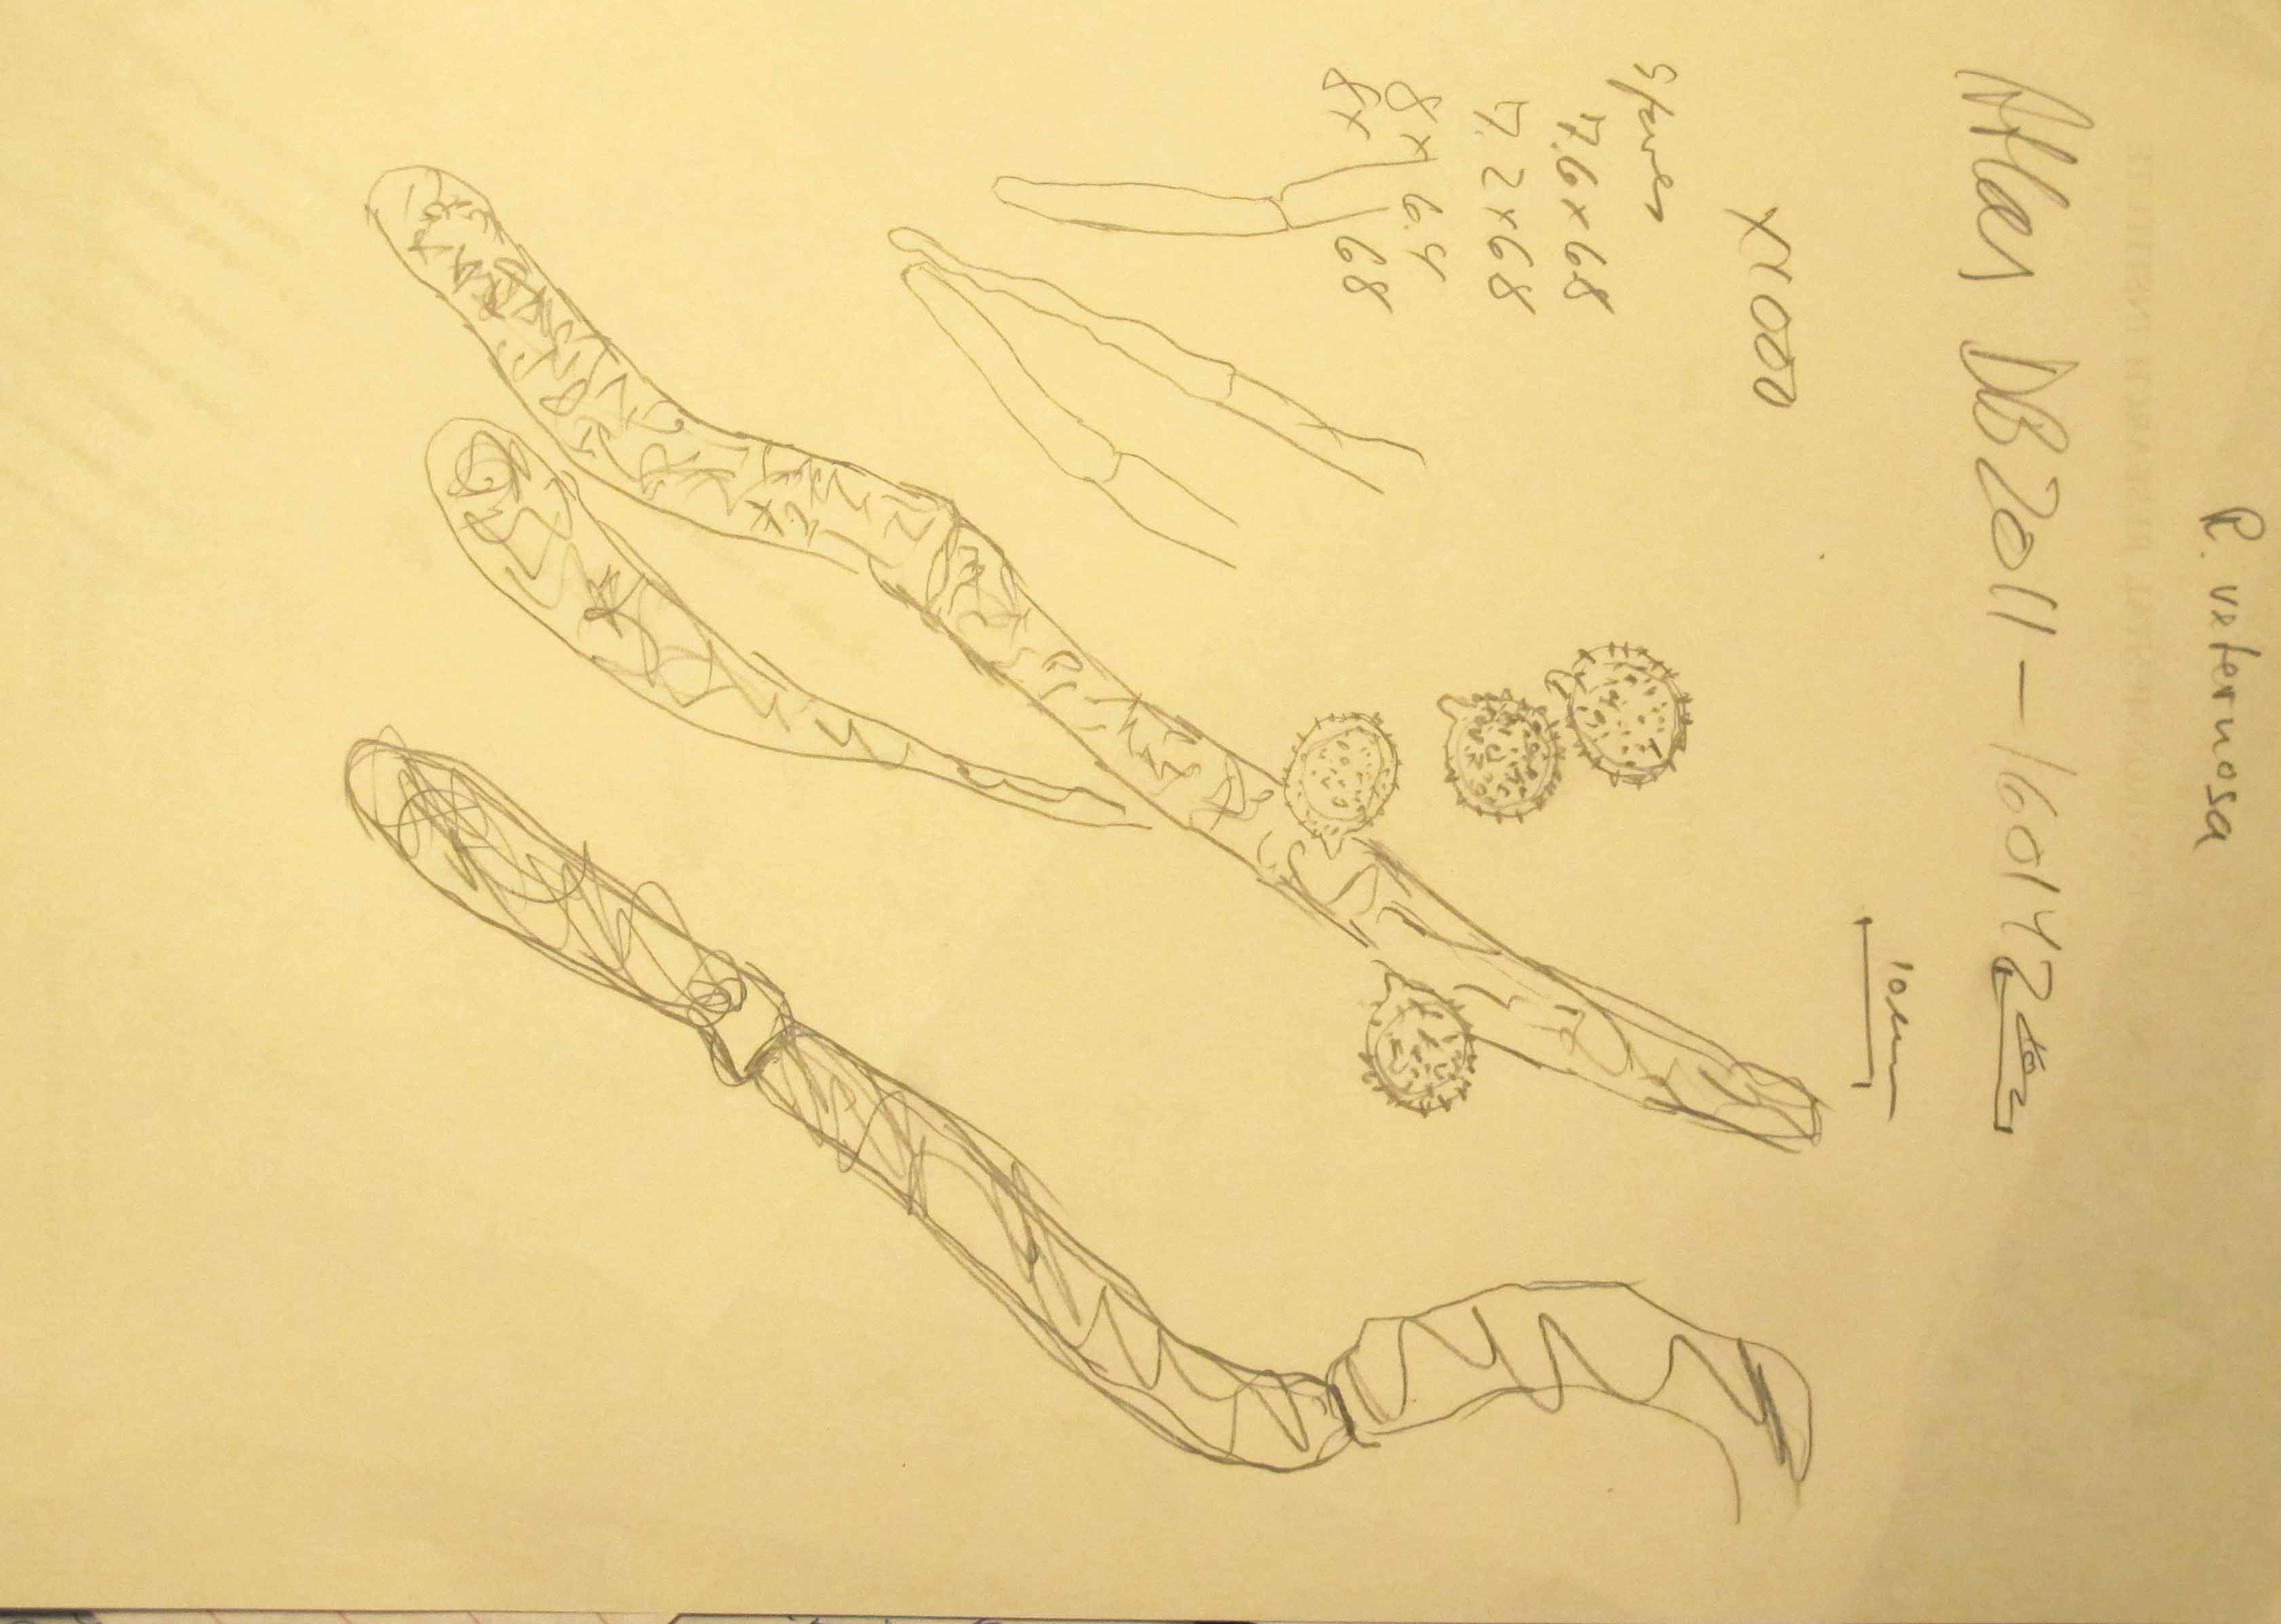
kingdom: Fungi
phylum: Basidiomycota
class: Agaricomycetes
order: Russulales
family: Russulaceae
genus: Russula
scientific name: Russula veternosa
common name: blødkødet skørhat
